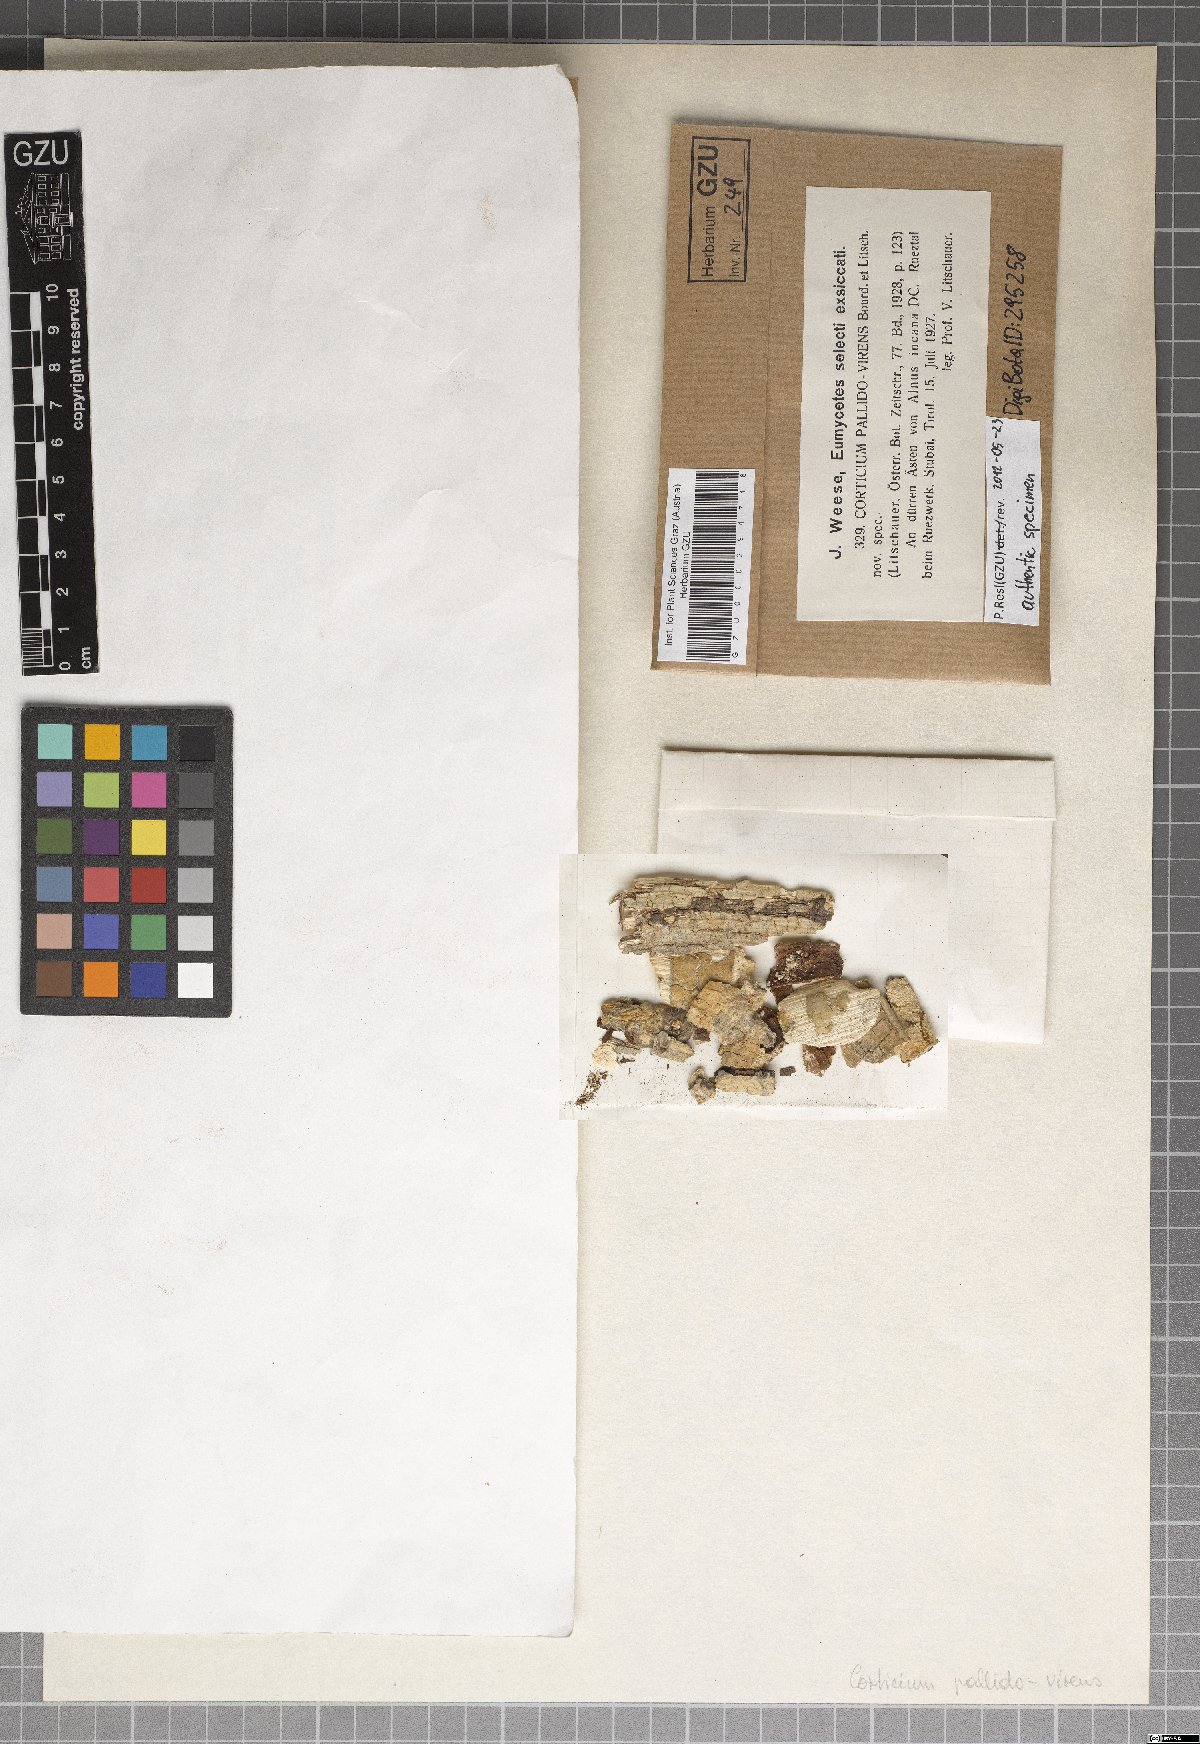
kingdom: Fungi
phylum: Basidiomycota
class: Agaricomycetes
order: Polyporales
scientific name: Polyporales
